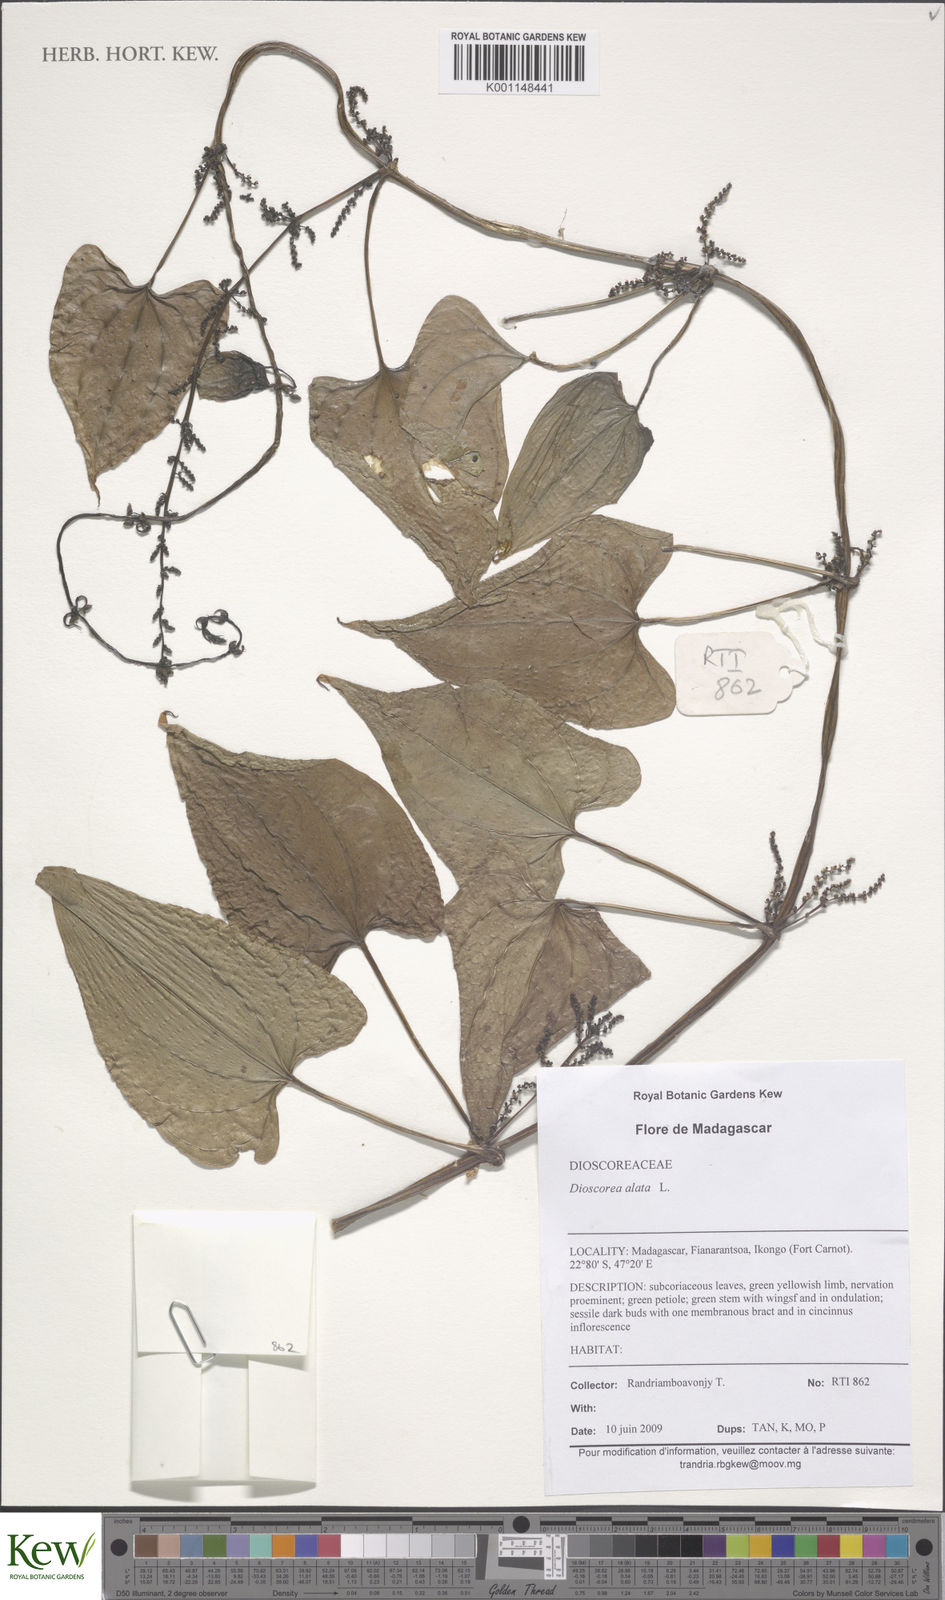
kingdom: Plantae
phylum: Tracheophyta
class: Liliopsida
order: Dioscoreales
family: Dioscoreaceae
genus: Dioscorea
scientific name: Dioscorea alata
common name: Water yam
